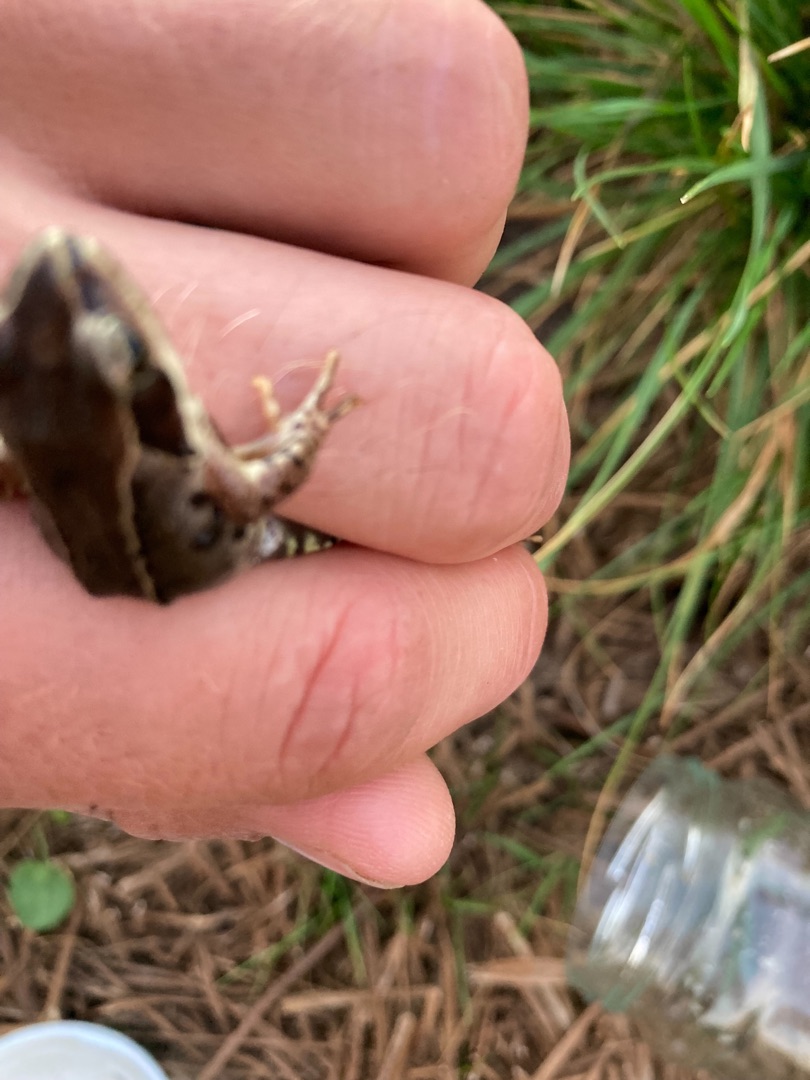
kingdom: Animalia
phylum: Chordata
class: Amphibia
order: Anura
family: Ranidae
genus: Rana
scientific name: Rana temporaria
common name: Butsnudet frø
